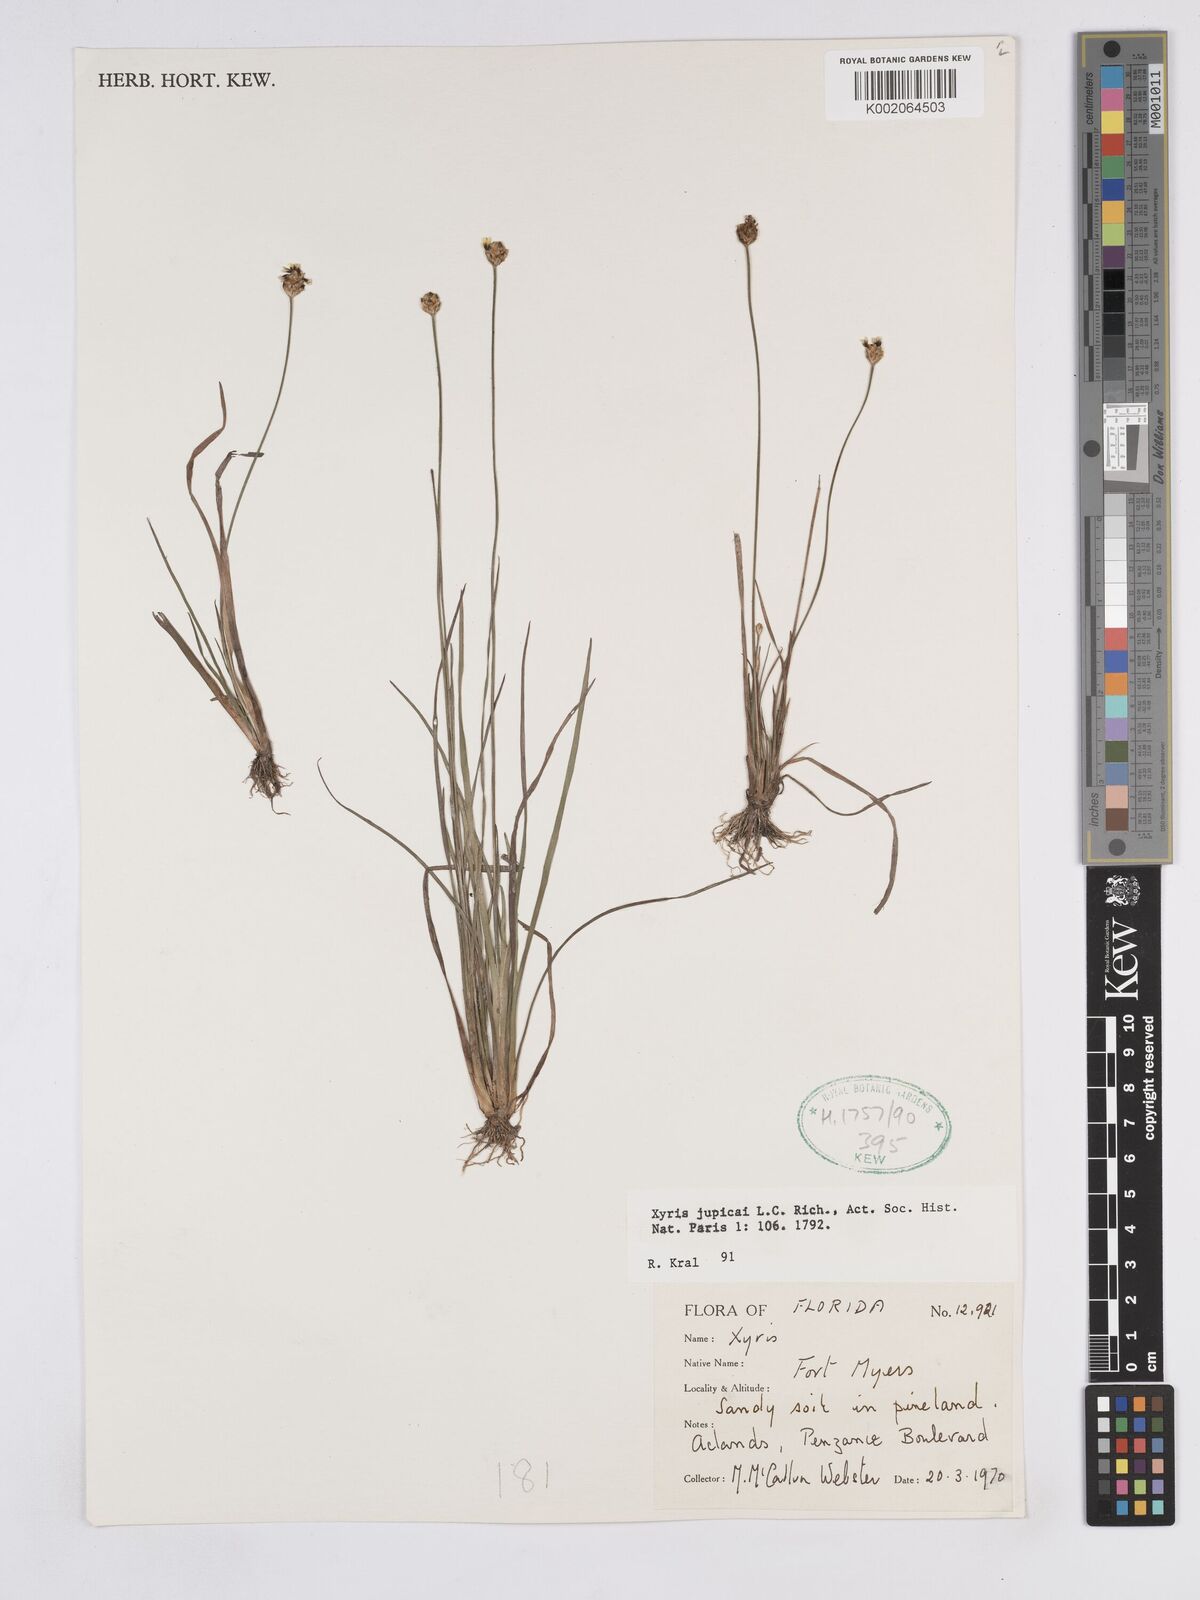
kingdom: Plantae
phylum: Tracheophyta
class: Liliopsida
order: Poales
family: Xyridaceae
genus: Xyris
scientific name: Xyris jupicai
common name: Richard's yelloweyed grass
